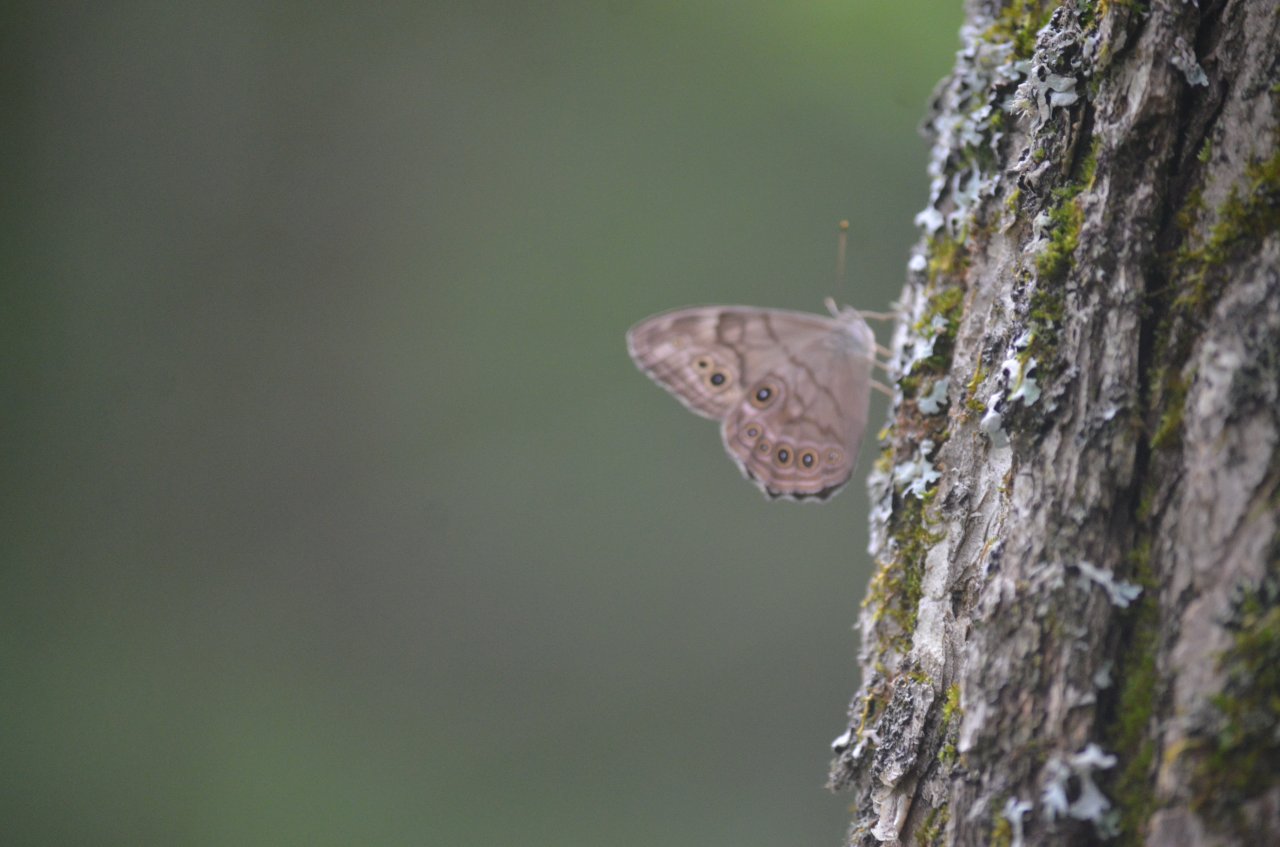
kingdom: Animalia
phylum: Arthropoda
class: Insecta
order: Lepidoptera
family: Nymphalidae
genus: Lethe
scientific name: Lethe anthedon
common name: Northern Pearly-Eye
